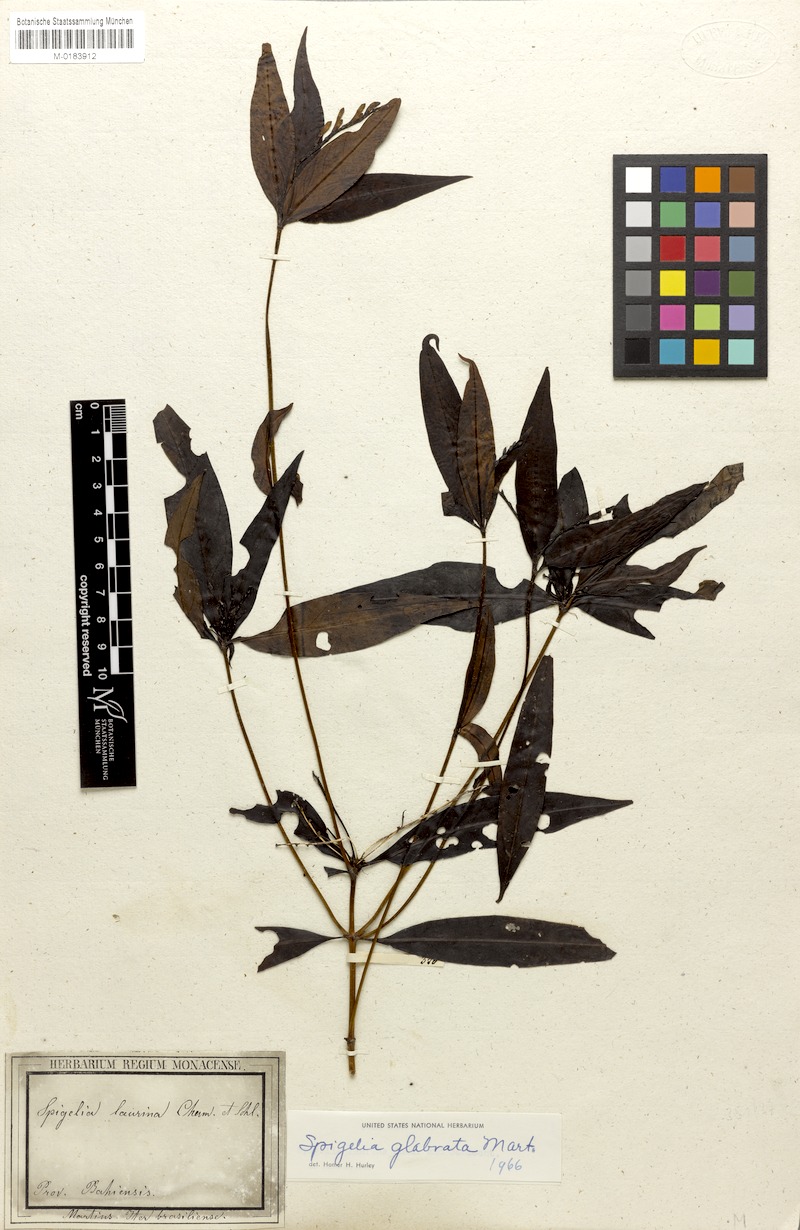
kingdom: Plantae
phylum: Tracheophyta
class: Magnoliopsida
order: Gentianales
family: Loganiaceae
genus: Spigelia
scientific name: Spigelia glabrata
